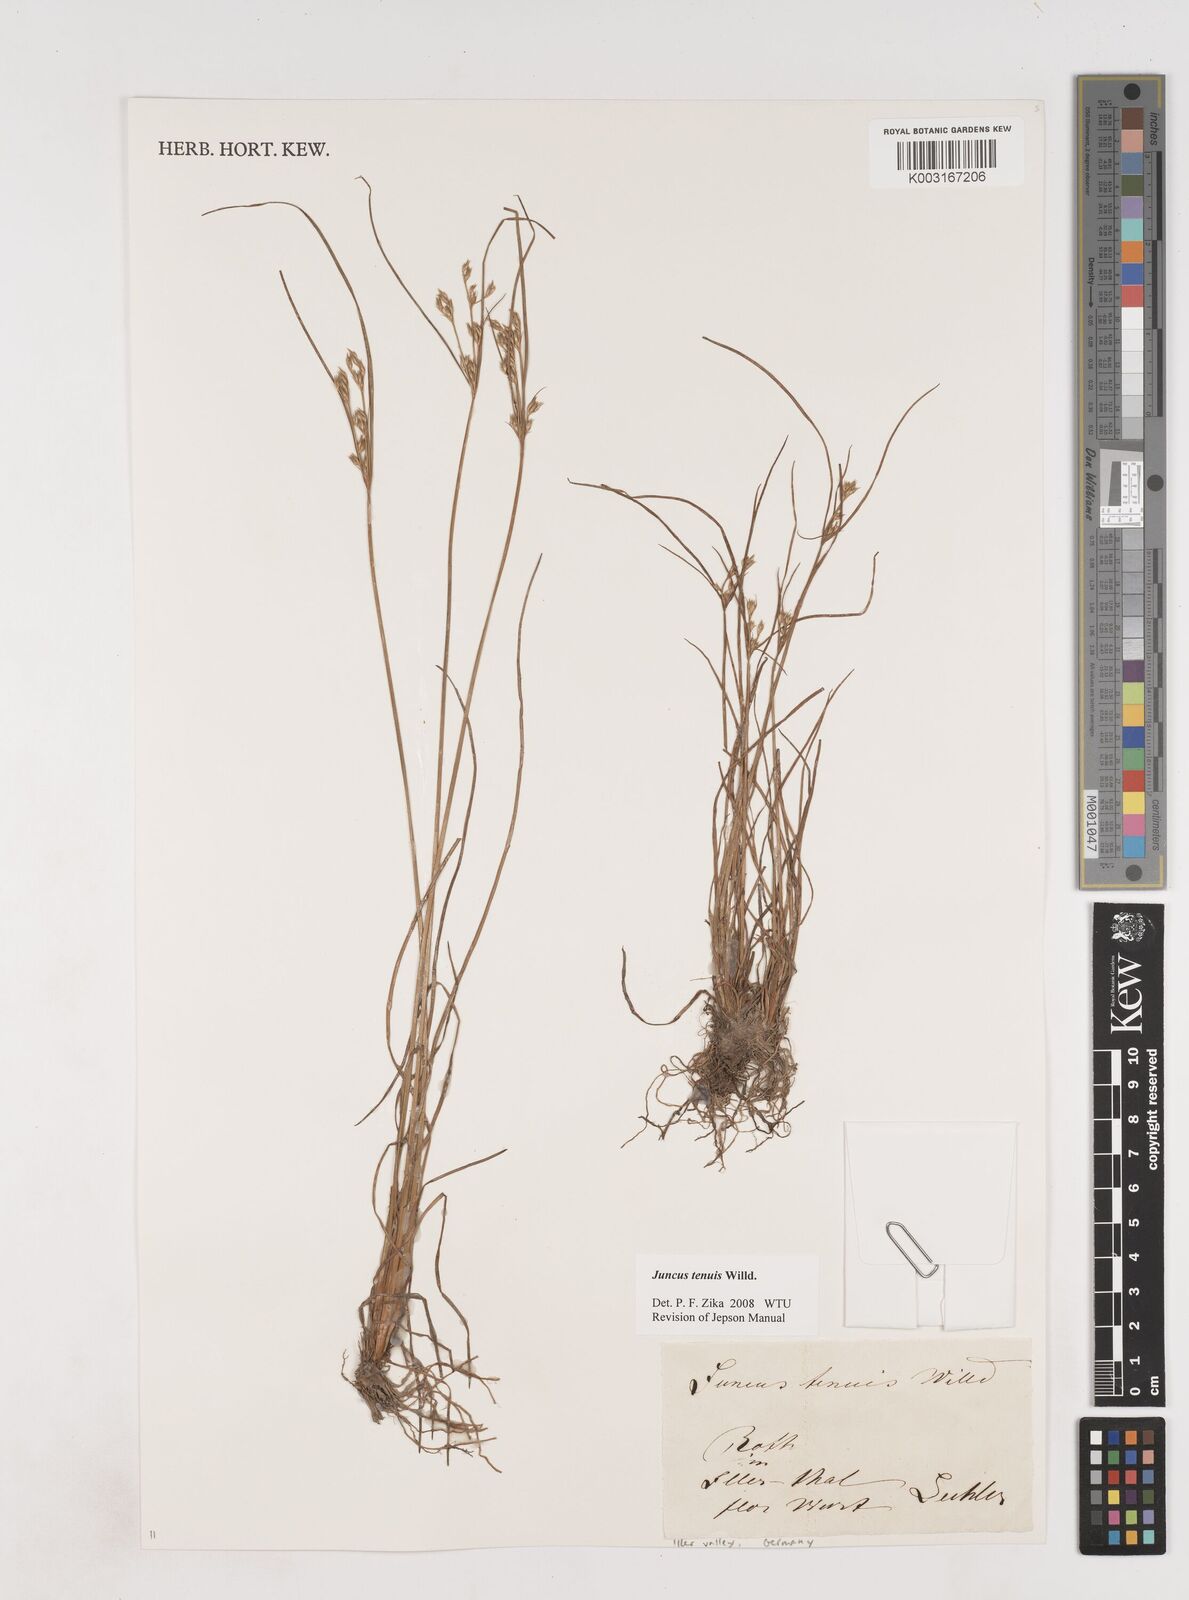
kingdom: Plantae
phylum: Tracheophyta
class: Liliopsida
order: Poales
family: Juncaceae
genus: Juncus
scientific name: Juncus tenuis
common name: Slender rush
